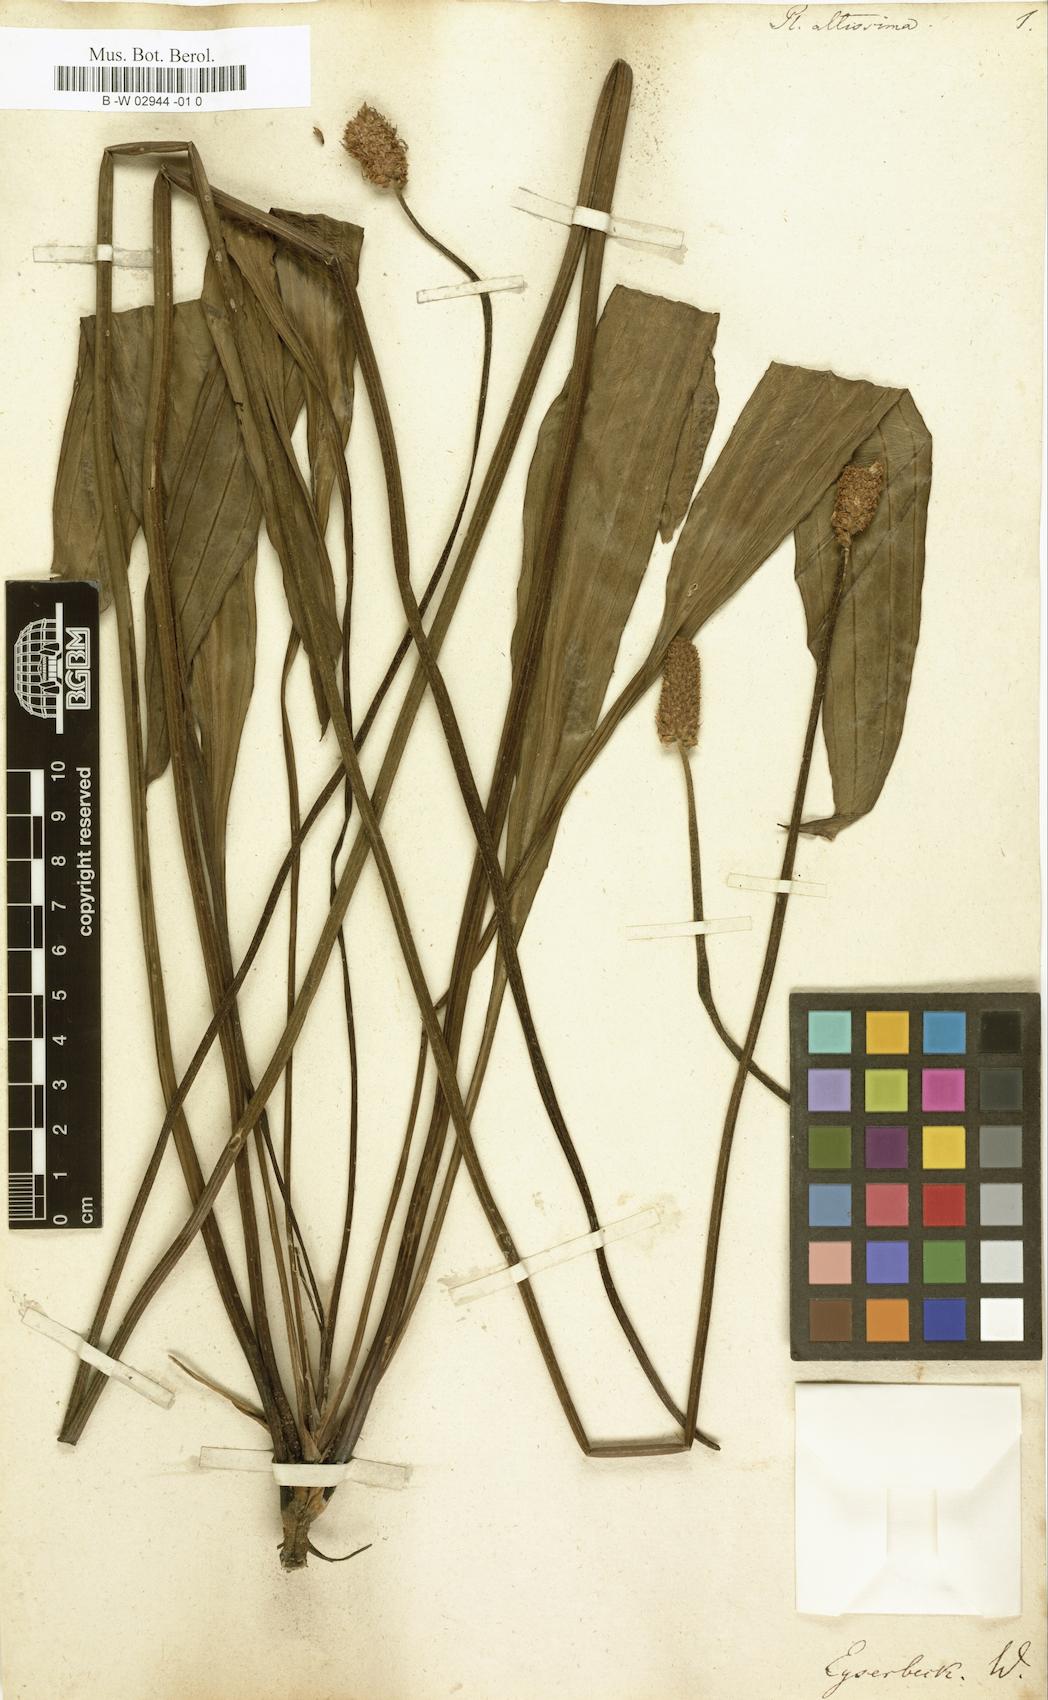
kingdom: Plantae
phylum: Tracheophyta
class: Magnoliopsida
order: Lamiales
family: Plantaginaceae
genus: Plantago
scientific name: Plantago altissima
